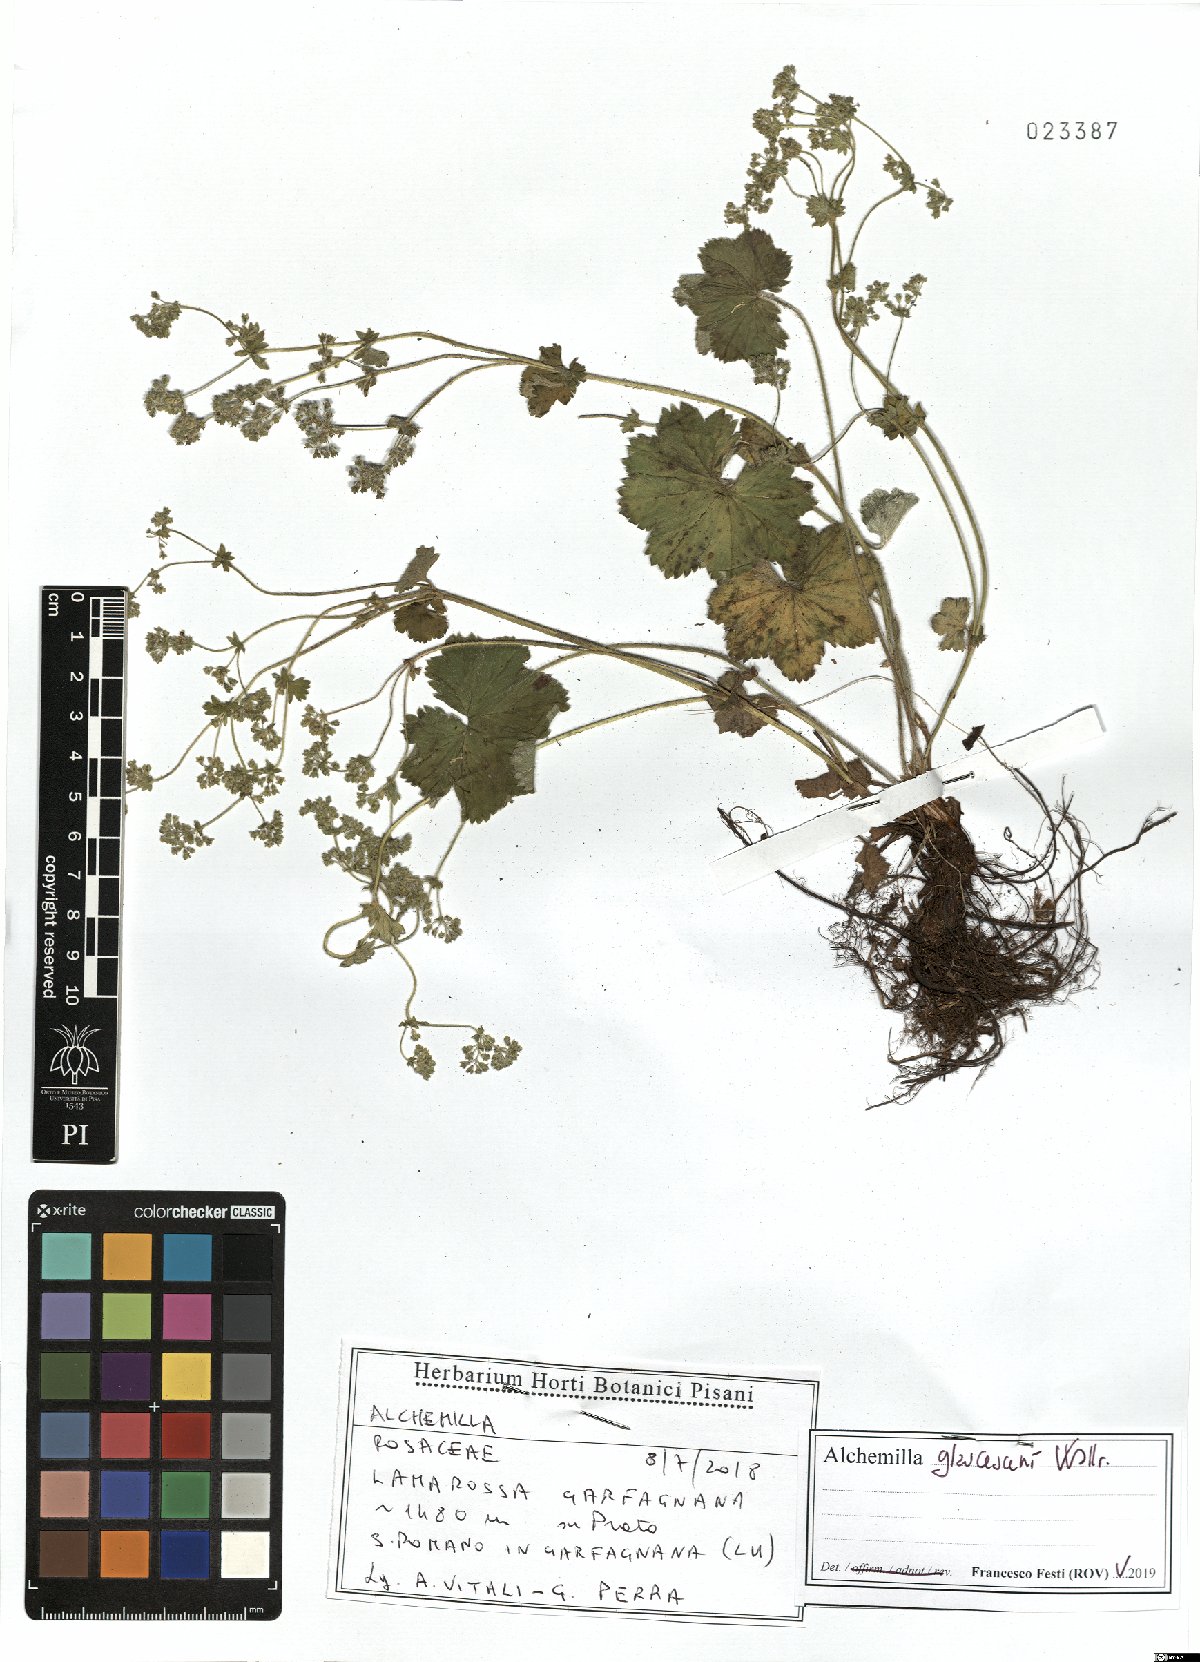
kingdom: Plantae
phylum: Tracheophyta
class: Magnoliopsida
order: Rosales
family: Rosaceae
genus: Alchemilla
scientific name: Alchemilla glaucescens
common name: Silky lady's mantle
